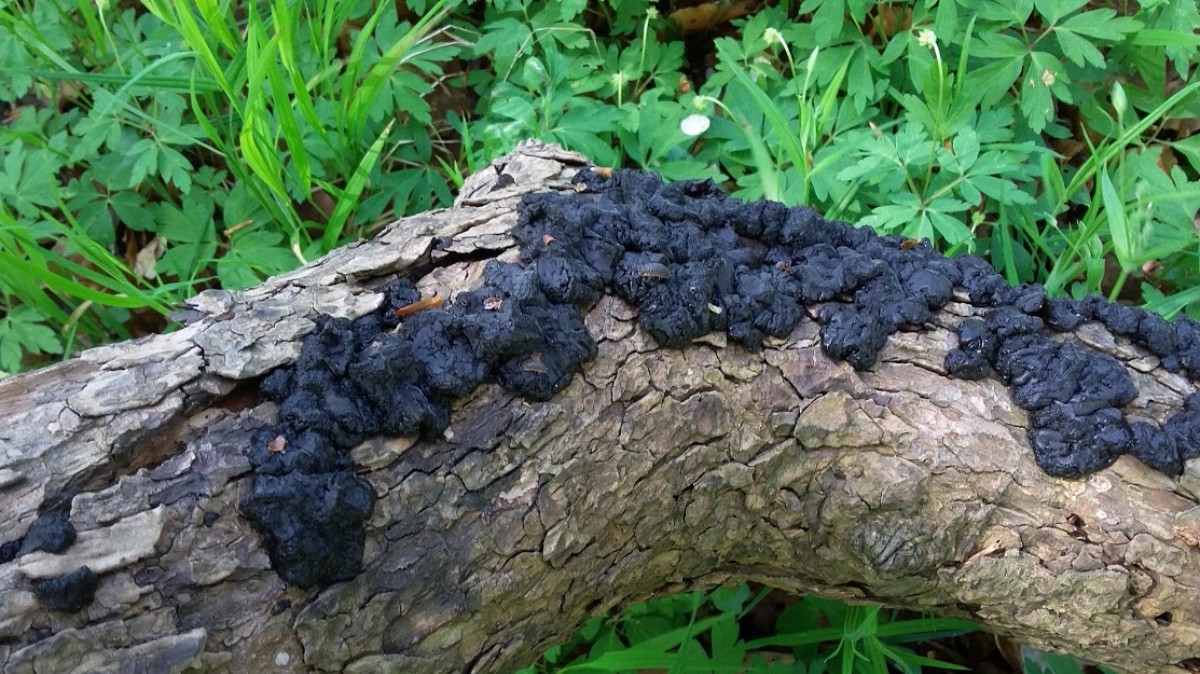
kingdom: Fungi
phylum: Basidiomycota
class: Agaricomycetes
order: Auriculariales
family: Auriculariaceae
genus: Exidia
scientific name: Exidia nigricans
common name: almindelig bævretop
